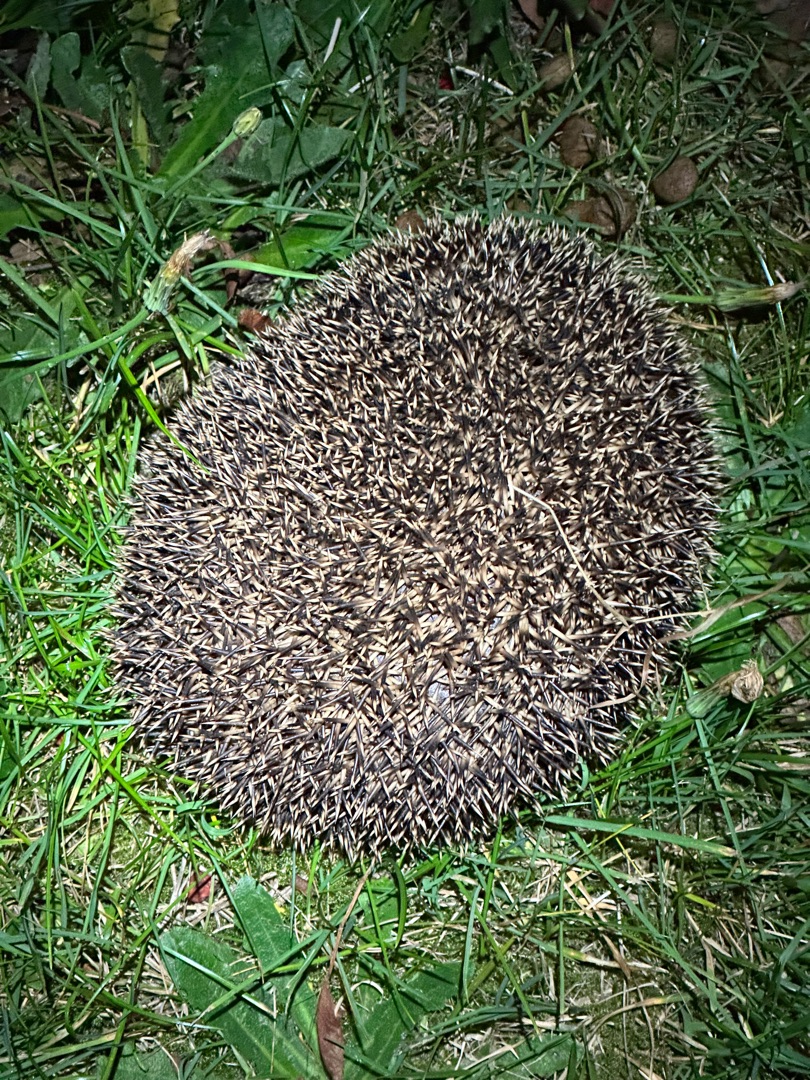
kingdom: Animalia
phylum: Chordata
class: Mammalia
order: Erinaceomorpha
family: Erinaceidae
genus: Erinaceus
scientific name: Erinaceus europaeus
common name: Pindsvin
